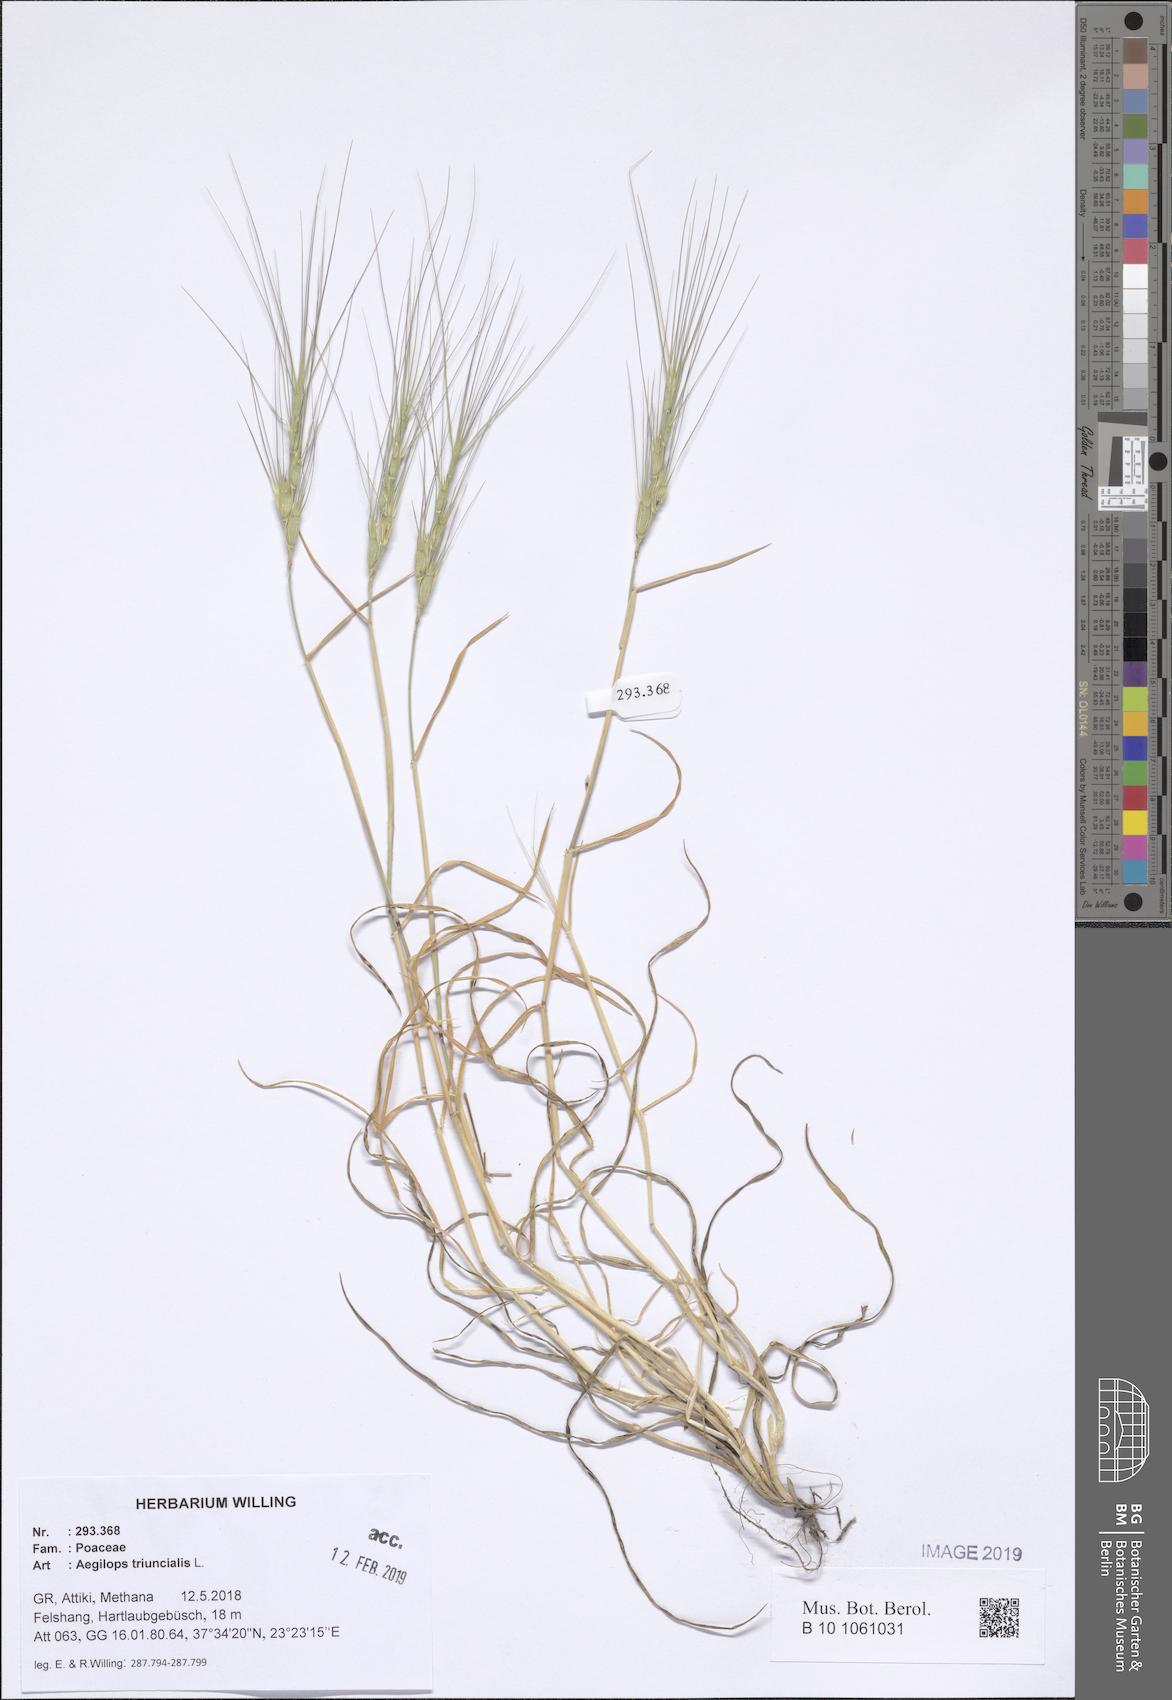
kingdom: Plantae
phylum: Tracheophyta
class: Liliopsida
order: Poales
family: Poaceae
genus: Aegilops
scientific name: Aegilops triuncialis
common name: Barb goat grass
